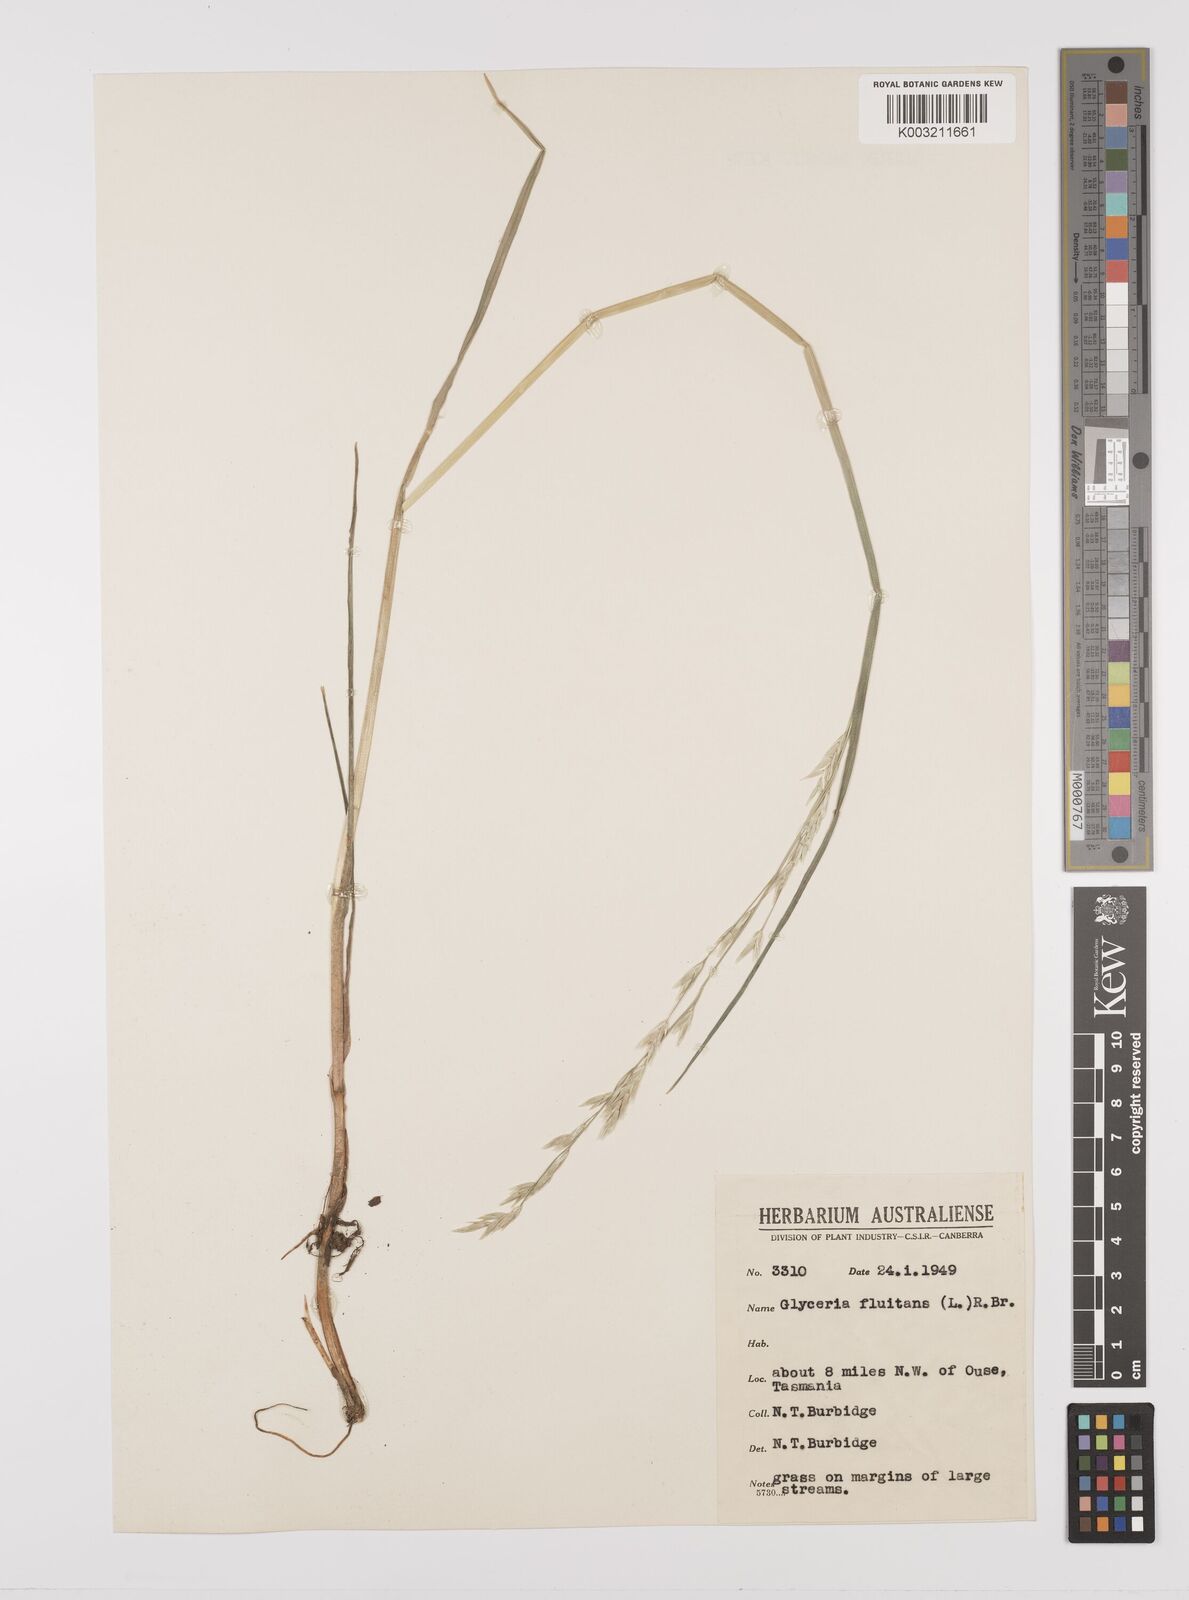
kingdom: Plantae
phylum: Tracheophyta
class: Liliopsida
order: Poales
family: Poaceae
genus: Glyceria
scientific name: Glyceria fluitans
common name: Floating sweet-grass
